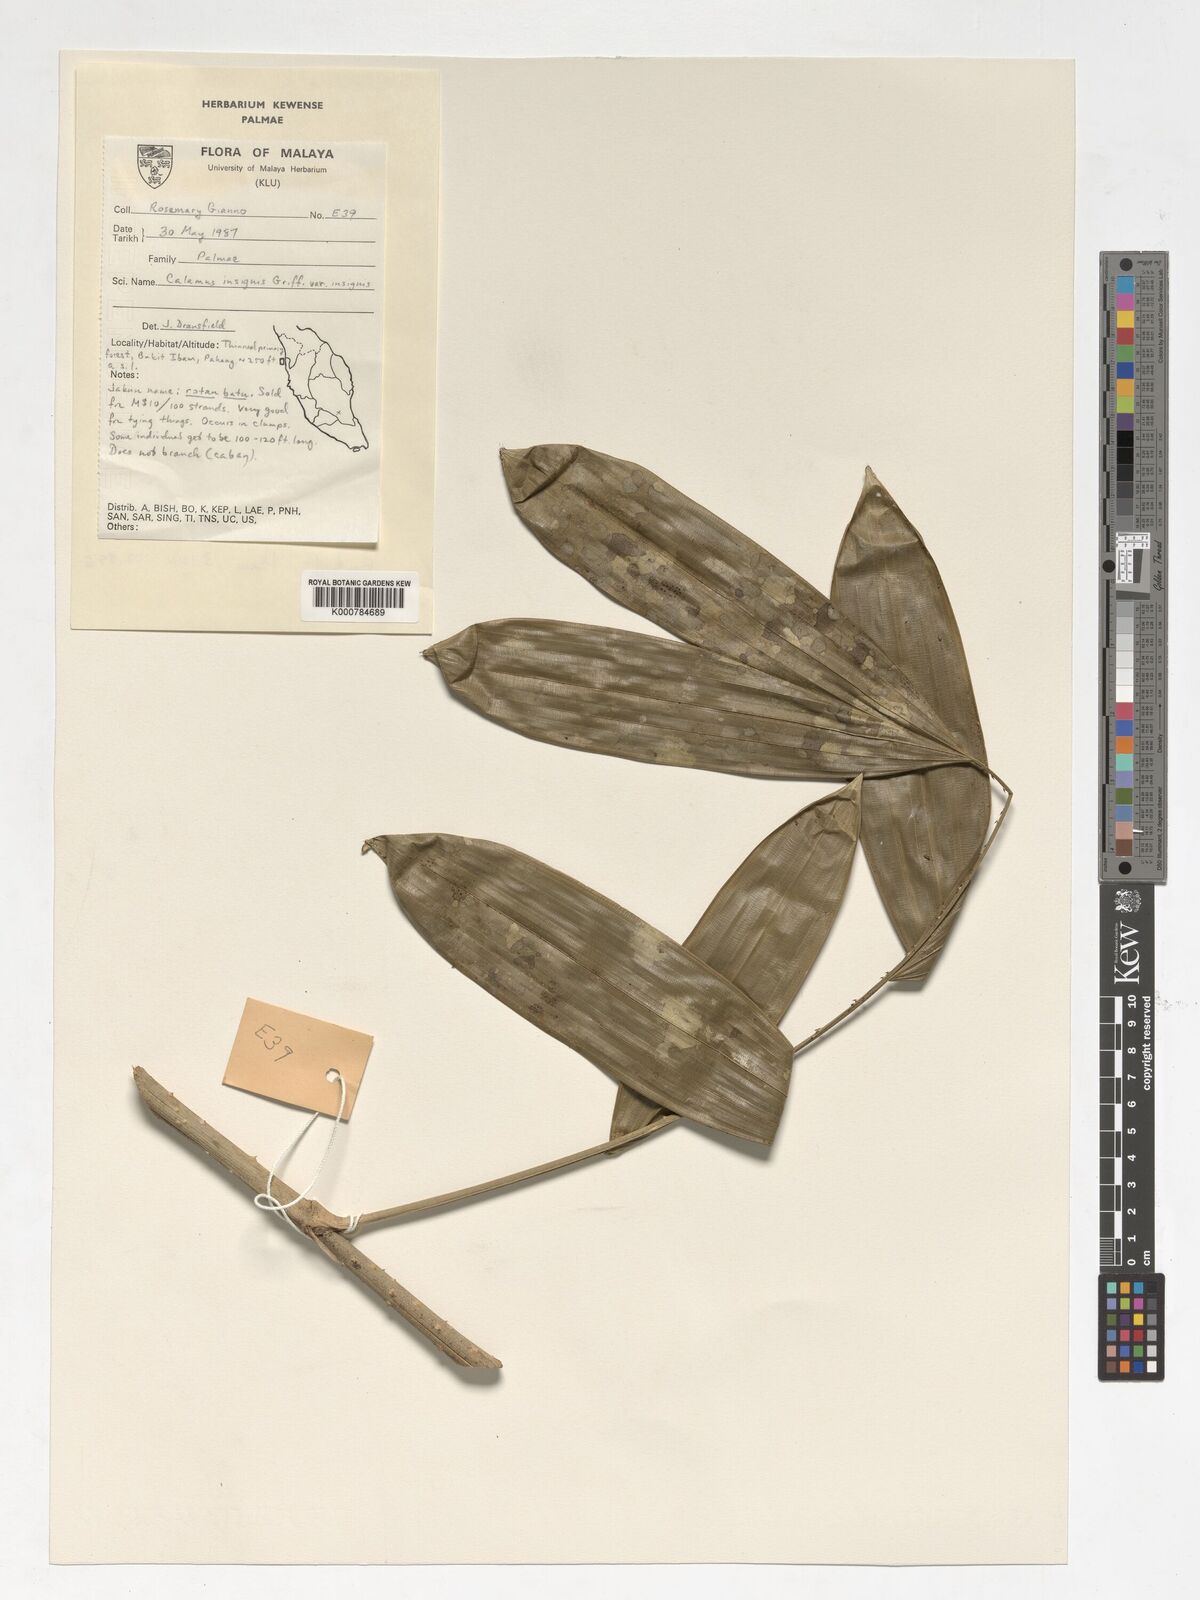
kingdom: Plantae
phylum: Tracheophyta
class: Liliopsida
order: Arecales
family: Arecaceae
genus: Calamus
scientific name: Calamus insignis
